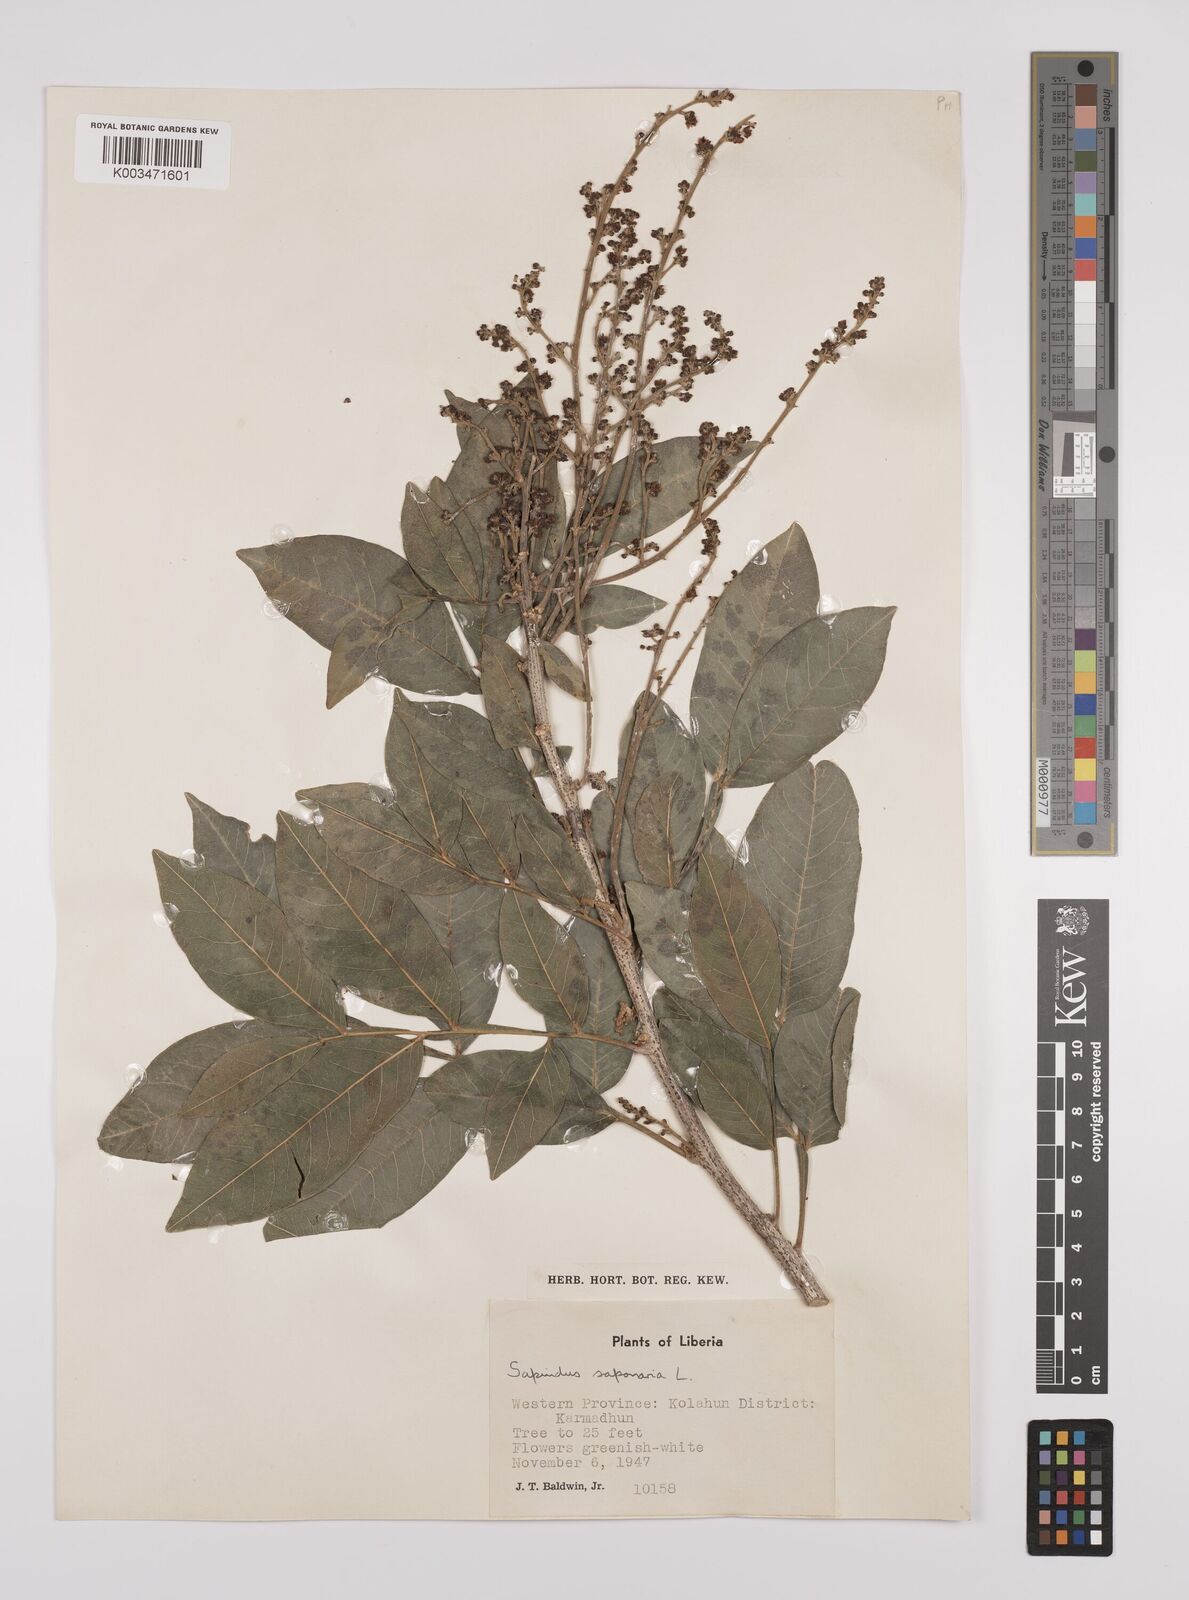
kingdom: Plantae
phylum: Tracheophyta
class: Magnoliopsida
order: Sapindales
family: Sapindaceae
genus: Sapindus
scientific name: Sapindus
